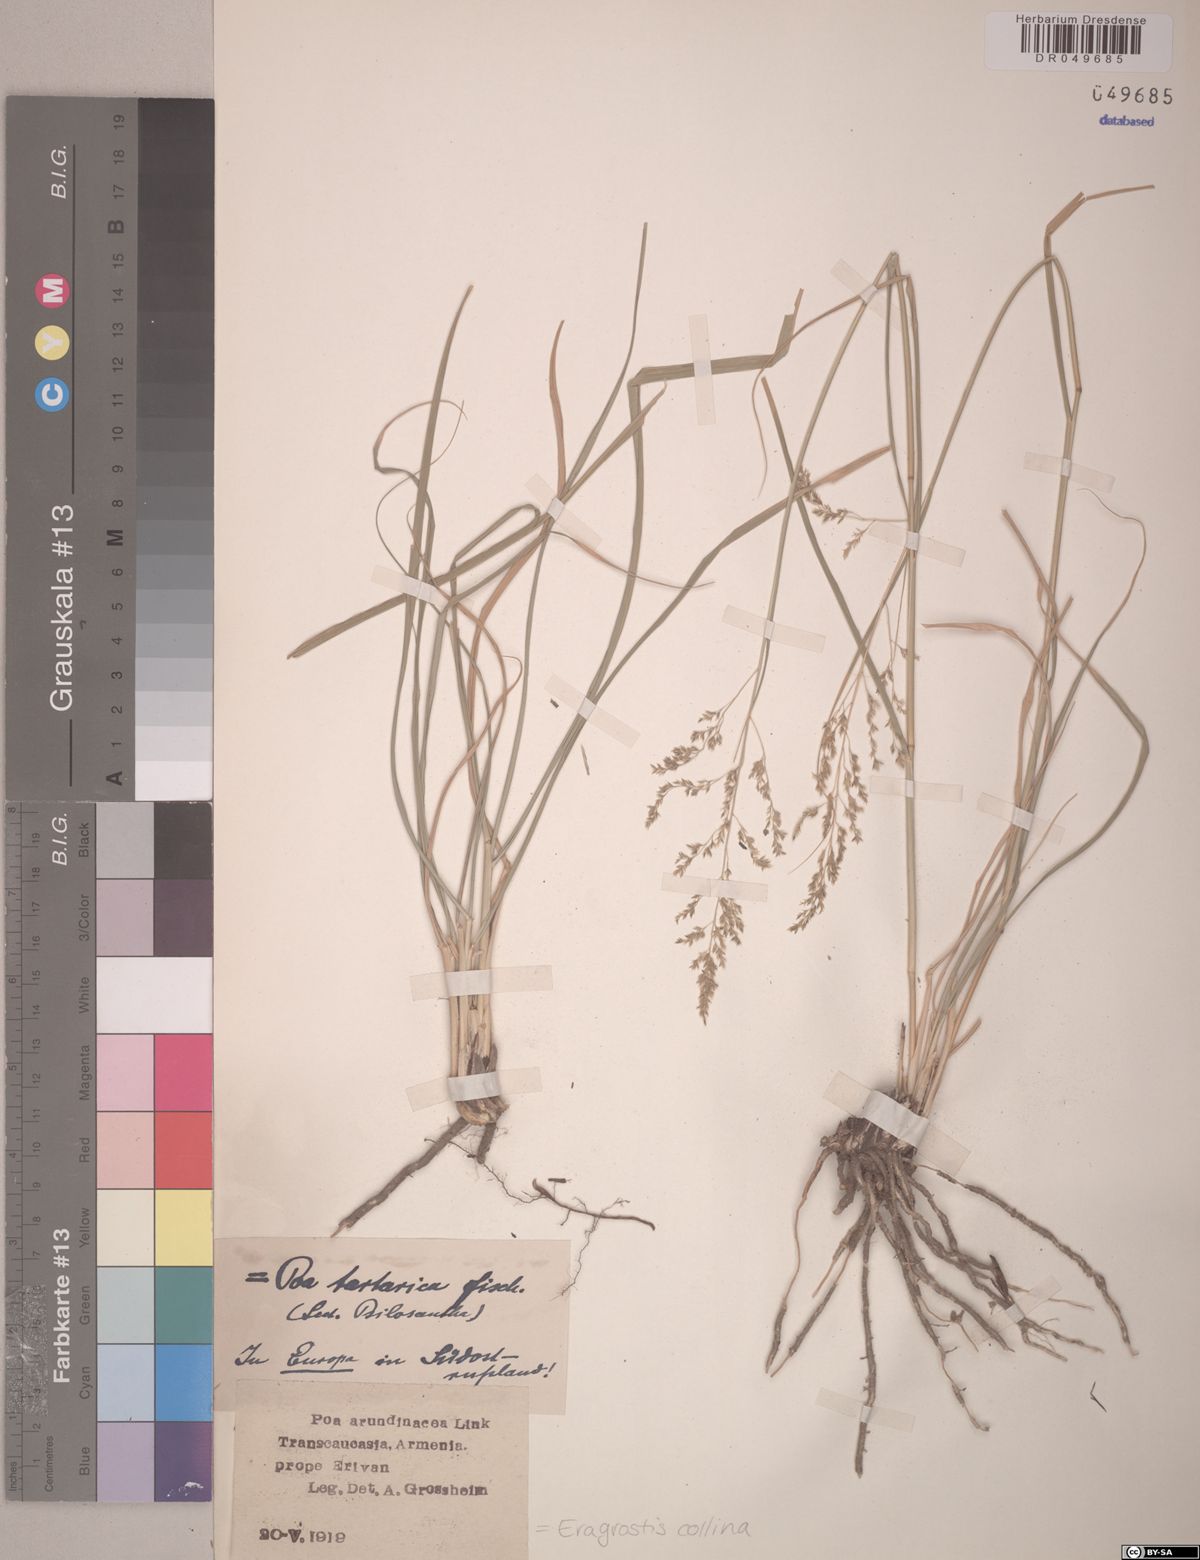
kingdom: Plantae
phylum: Tracheophyta
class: Liliopsida
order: Poales
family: Poaceae
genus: Eragrostis
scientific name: Eragrostis collina
